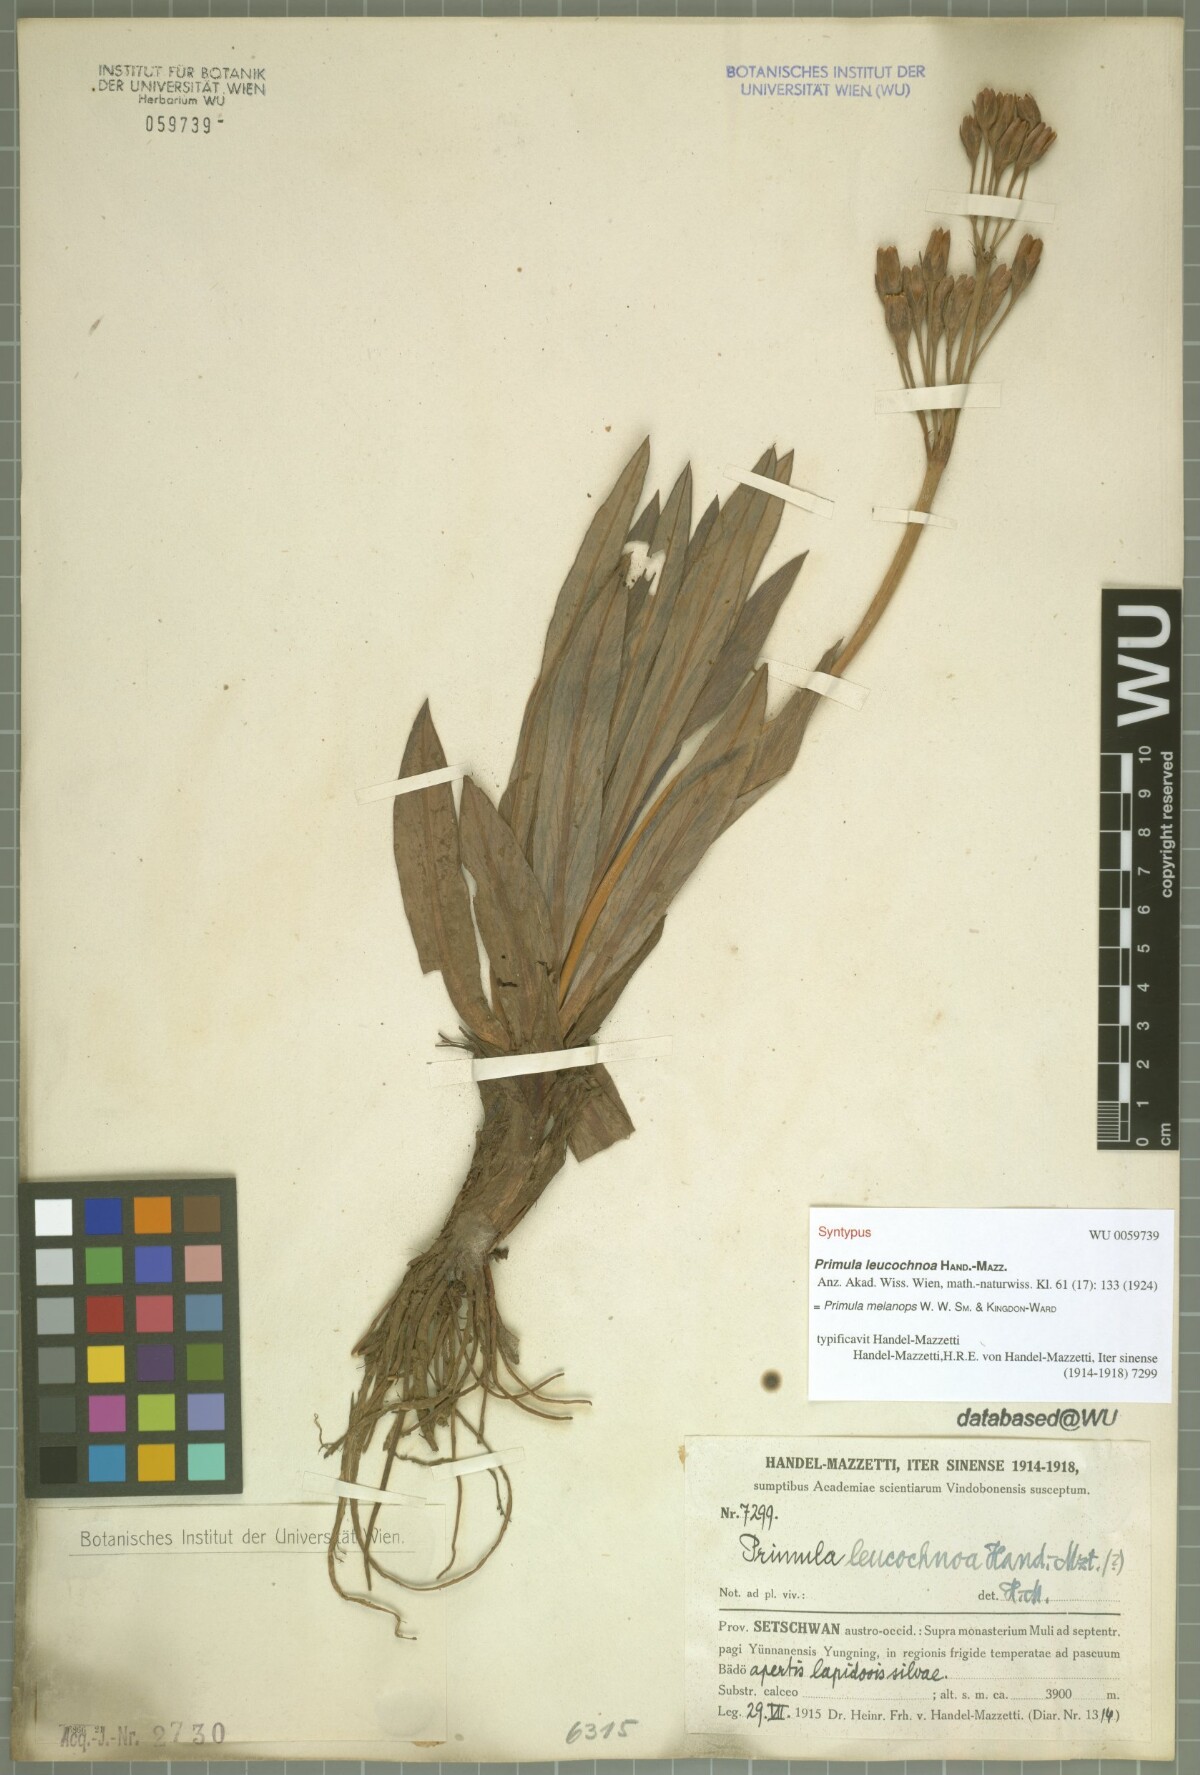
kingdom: Plantae
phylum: Tracheophyta
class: Magnoliopsida
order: Ericales
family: Primulaceae
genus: Primula
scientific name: Primula chionantha
